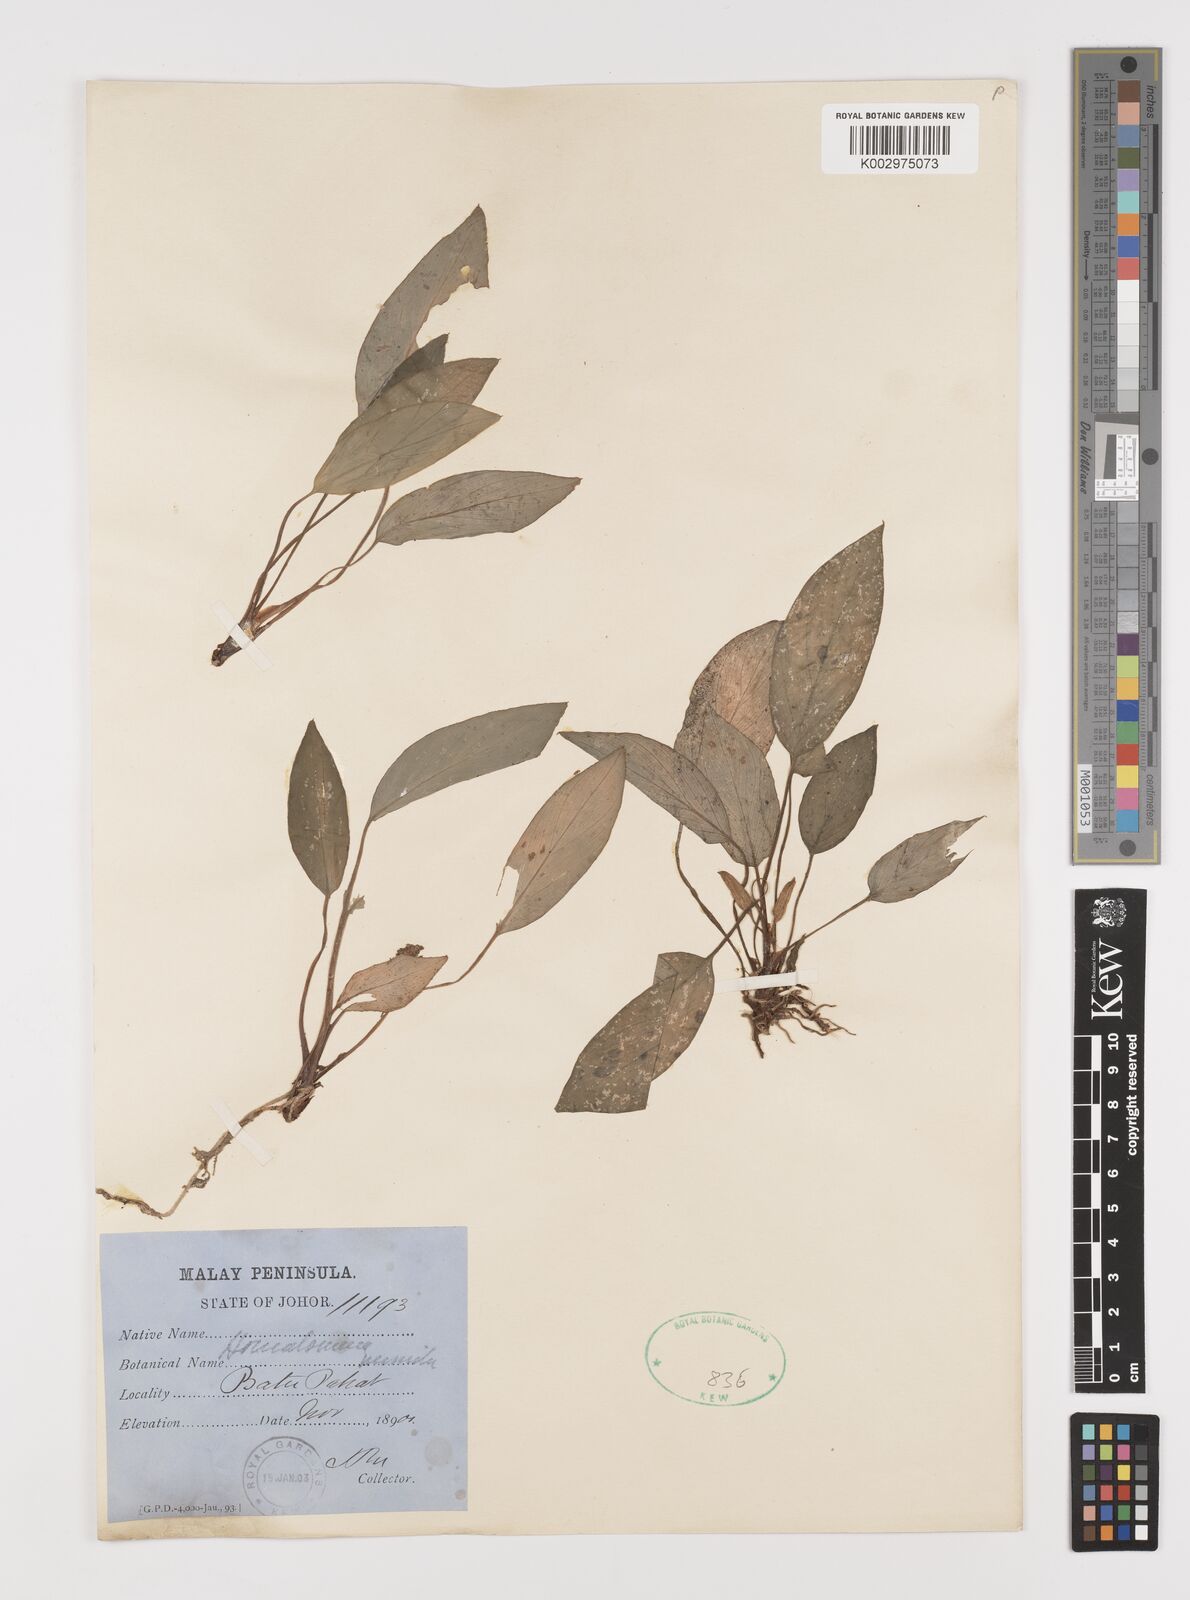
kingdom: Plantae
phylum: Tracheophyta
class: Liliopsida
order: Alismatales
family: Araceae
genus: Homalomena
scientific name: Homalomena humilis
